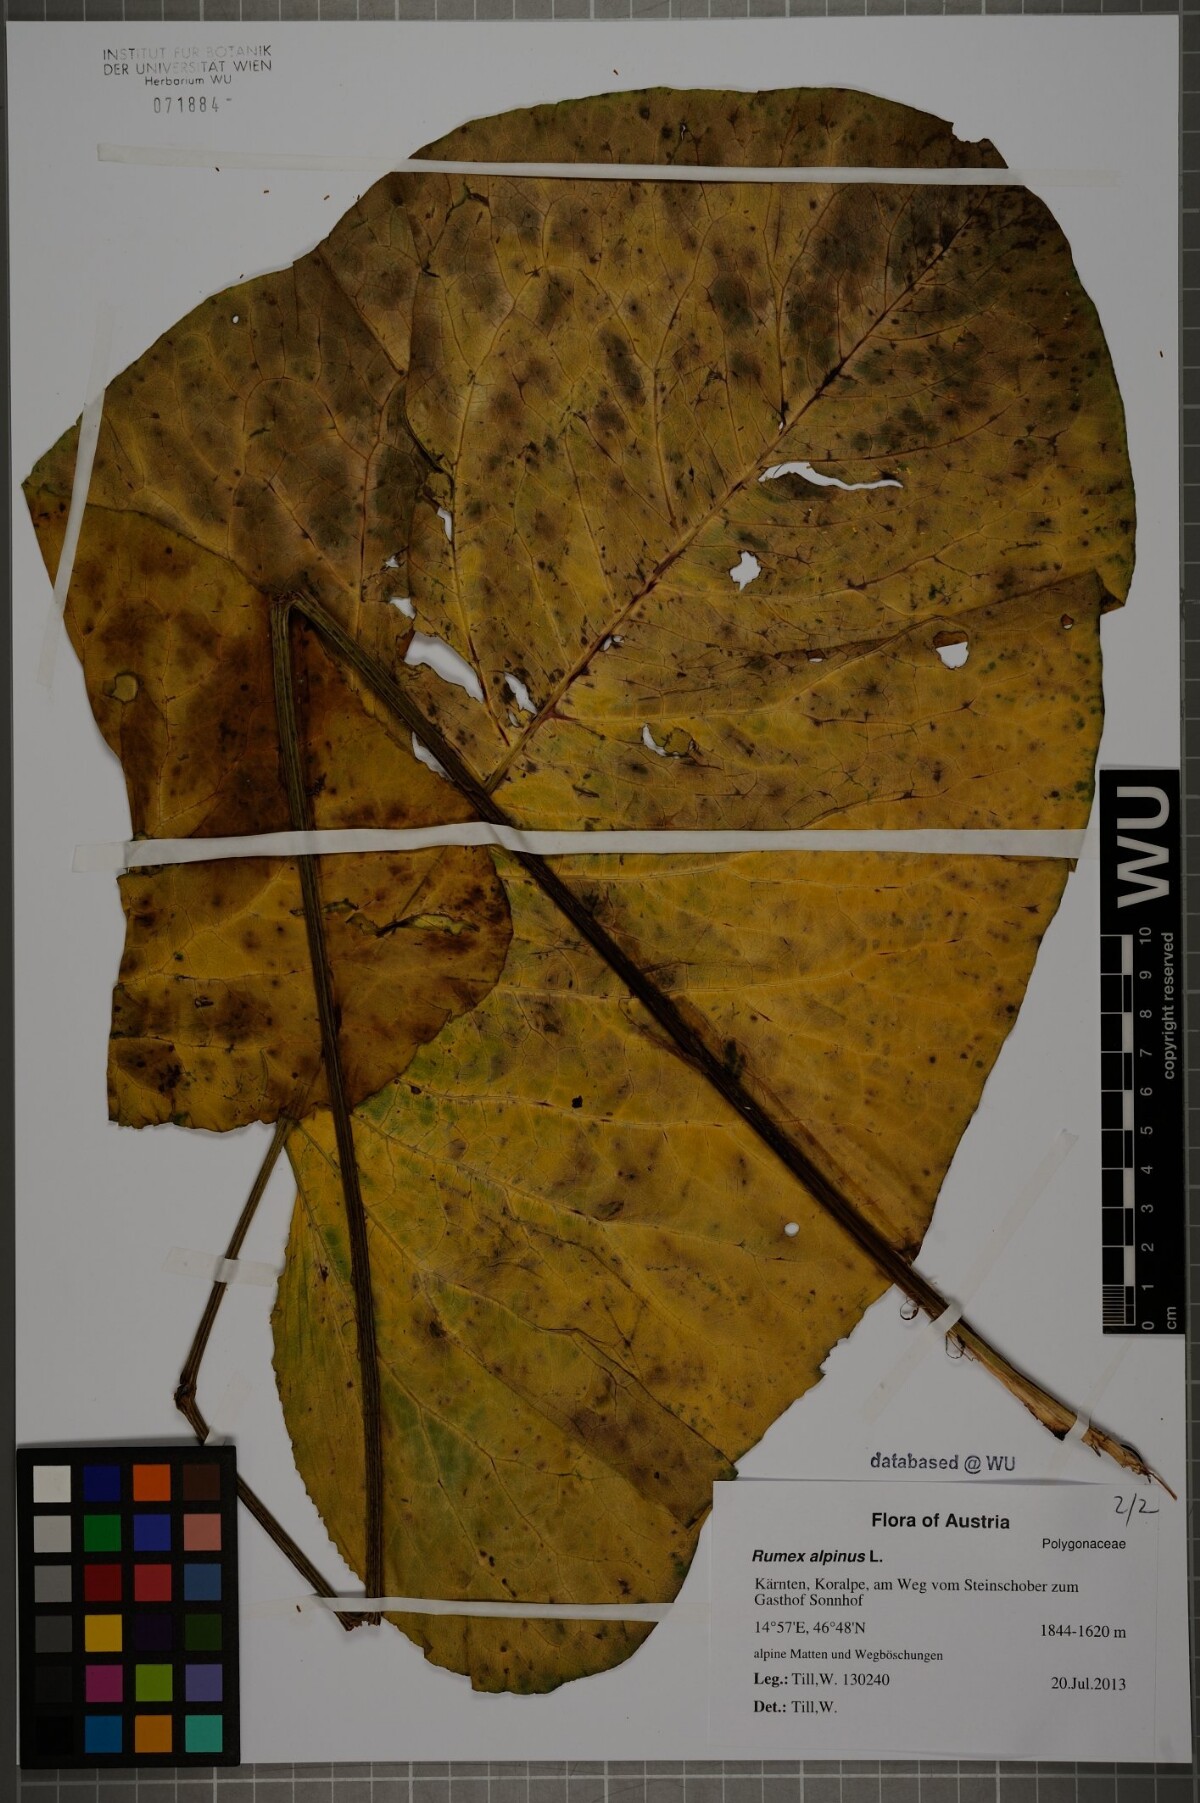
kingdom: Plantae
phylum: Tracheophyta
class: Magnoliopsida
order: Caryophyllales
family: Polygonaceae
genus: Rumex
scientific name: Rumex alpinus
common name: Alpine dock
